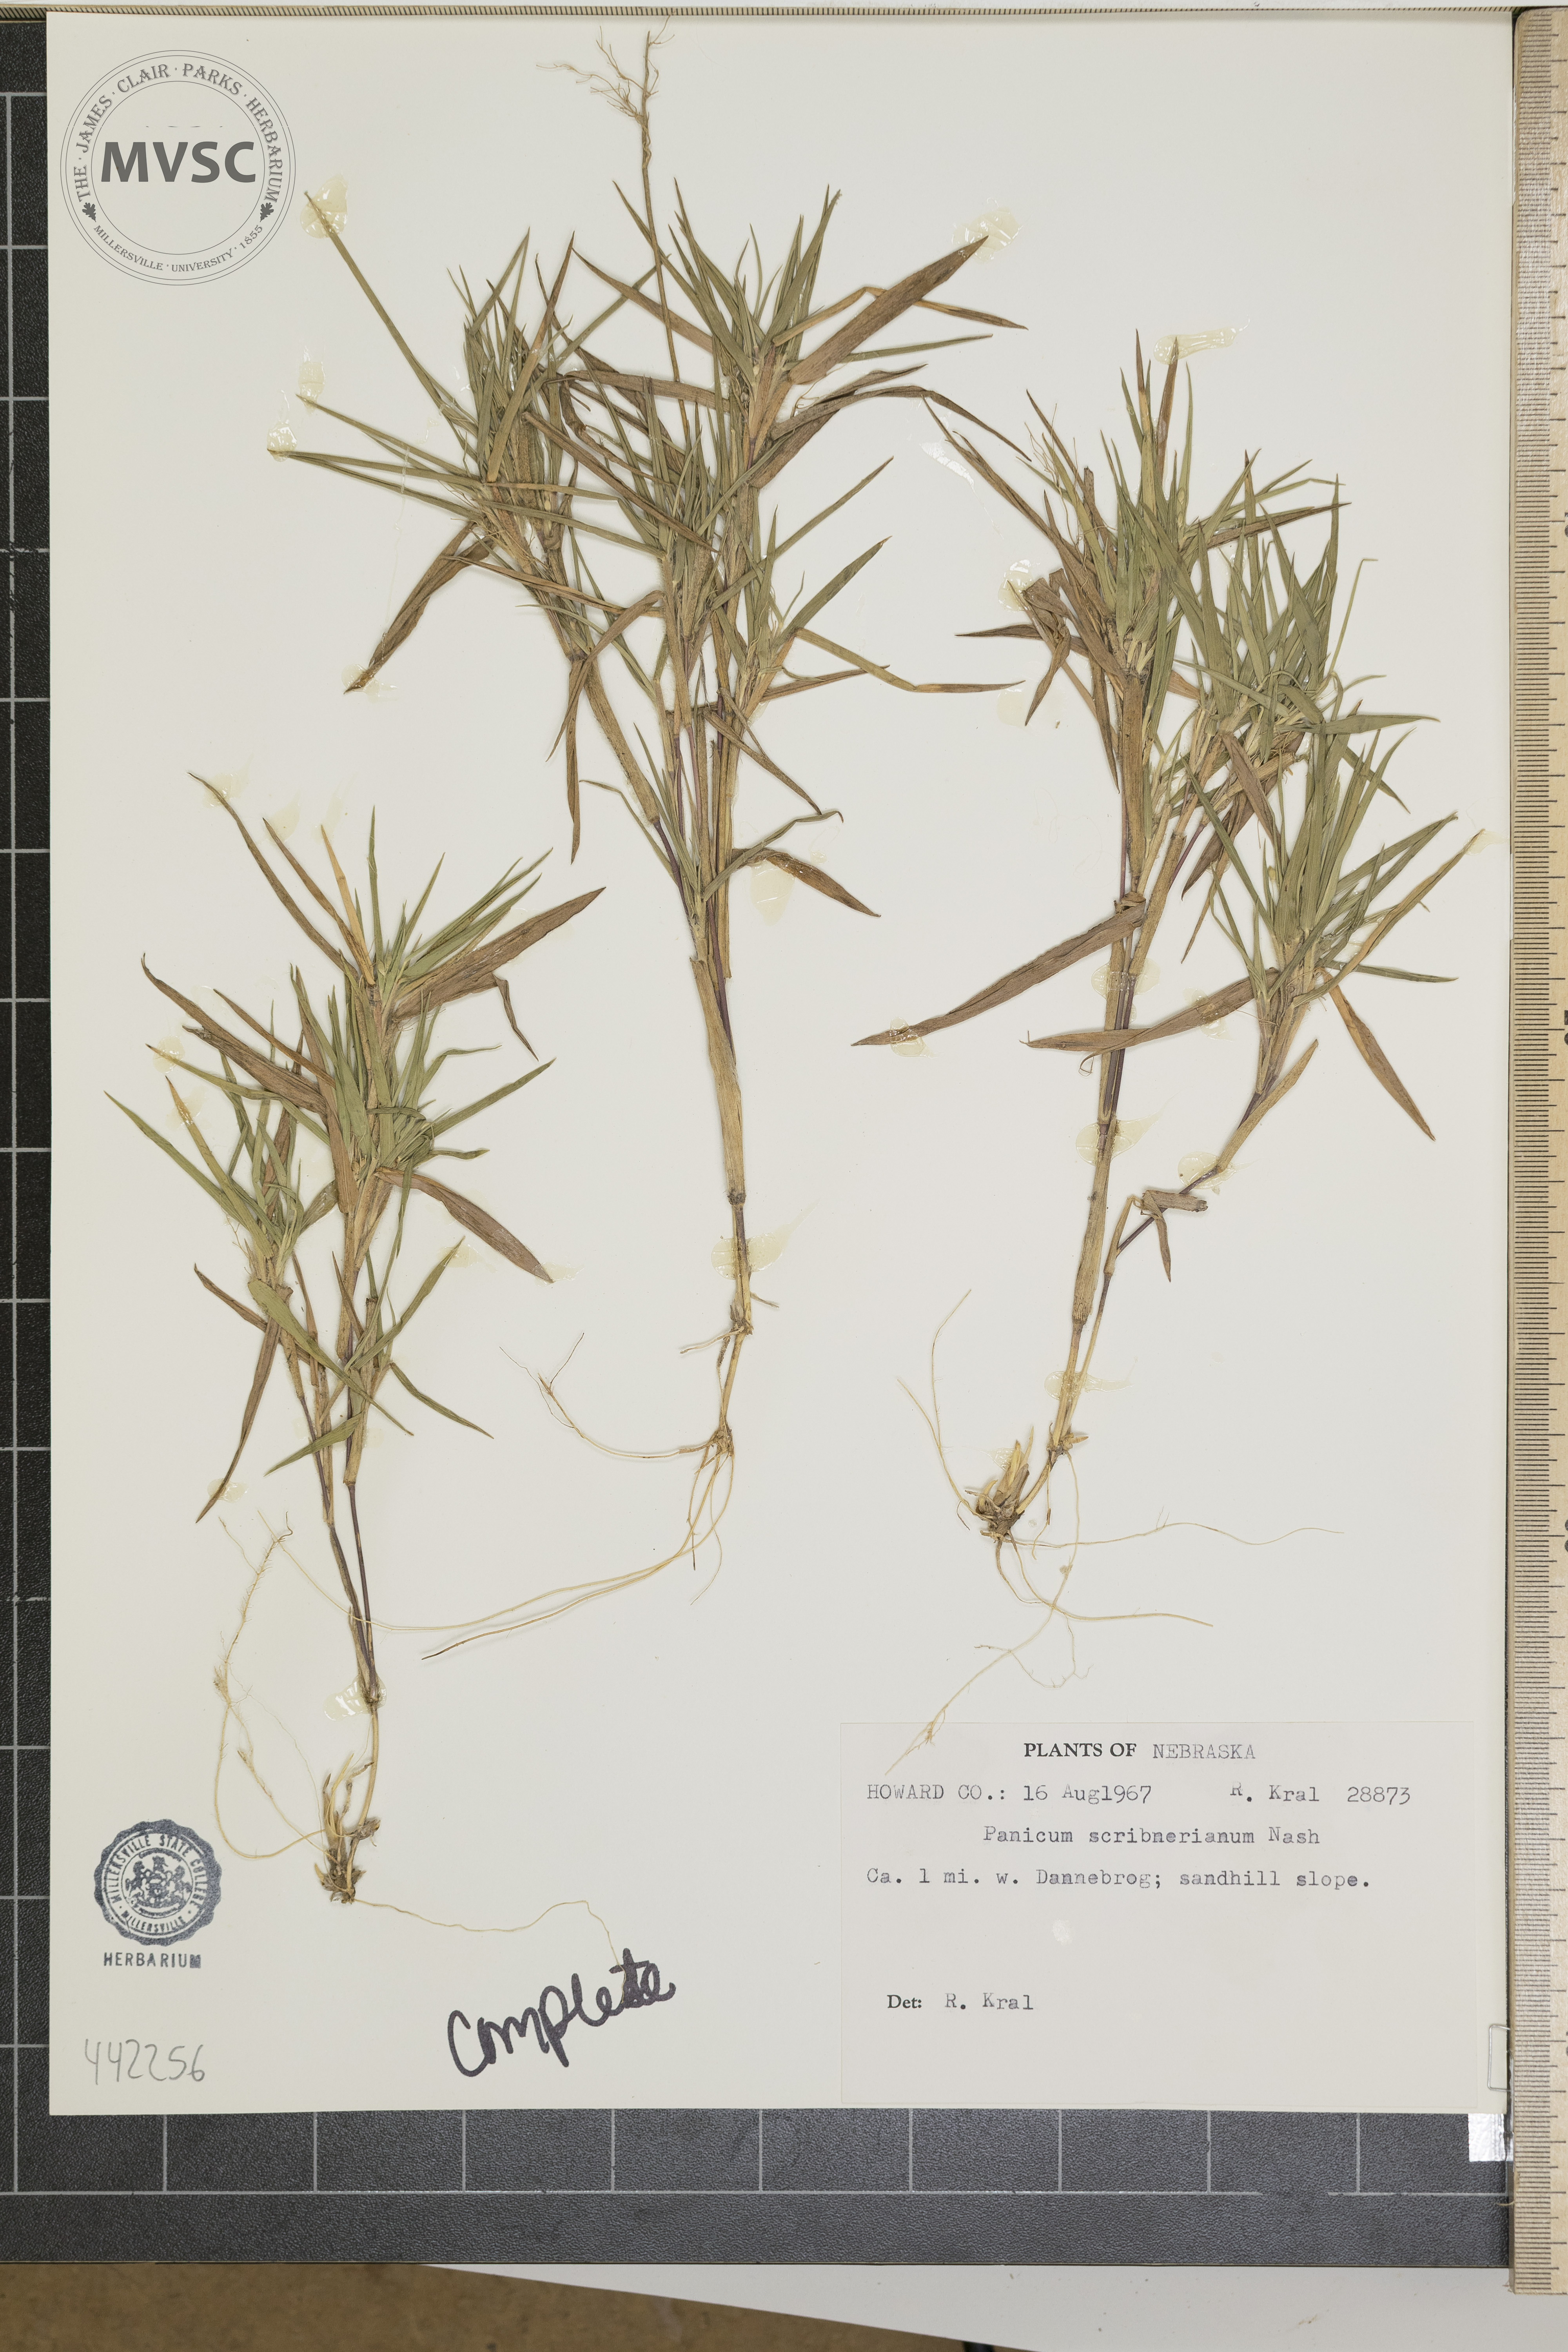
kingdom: Plantae
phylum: Tracheophyta
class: Liliopsida
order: Poales
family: Poaceae
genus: Dichanthelium
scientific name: Dichanthelium scribnerianum
